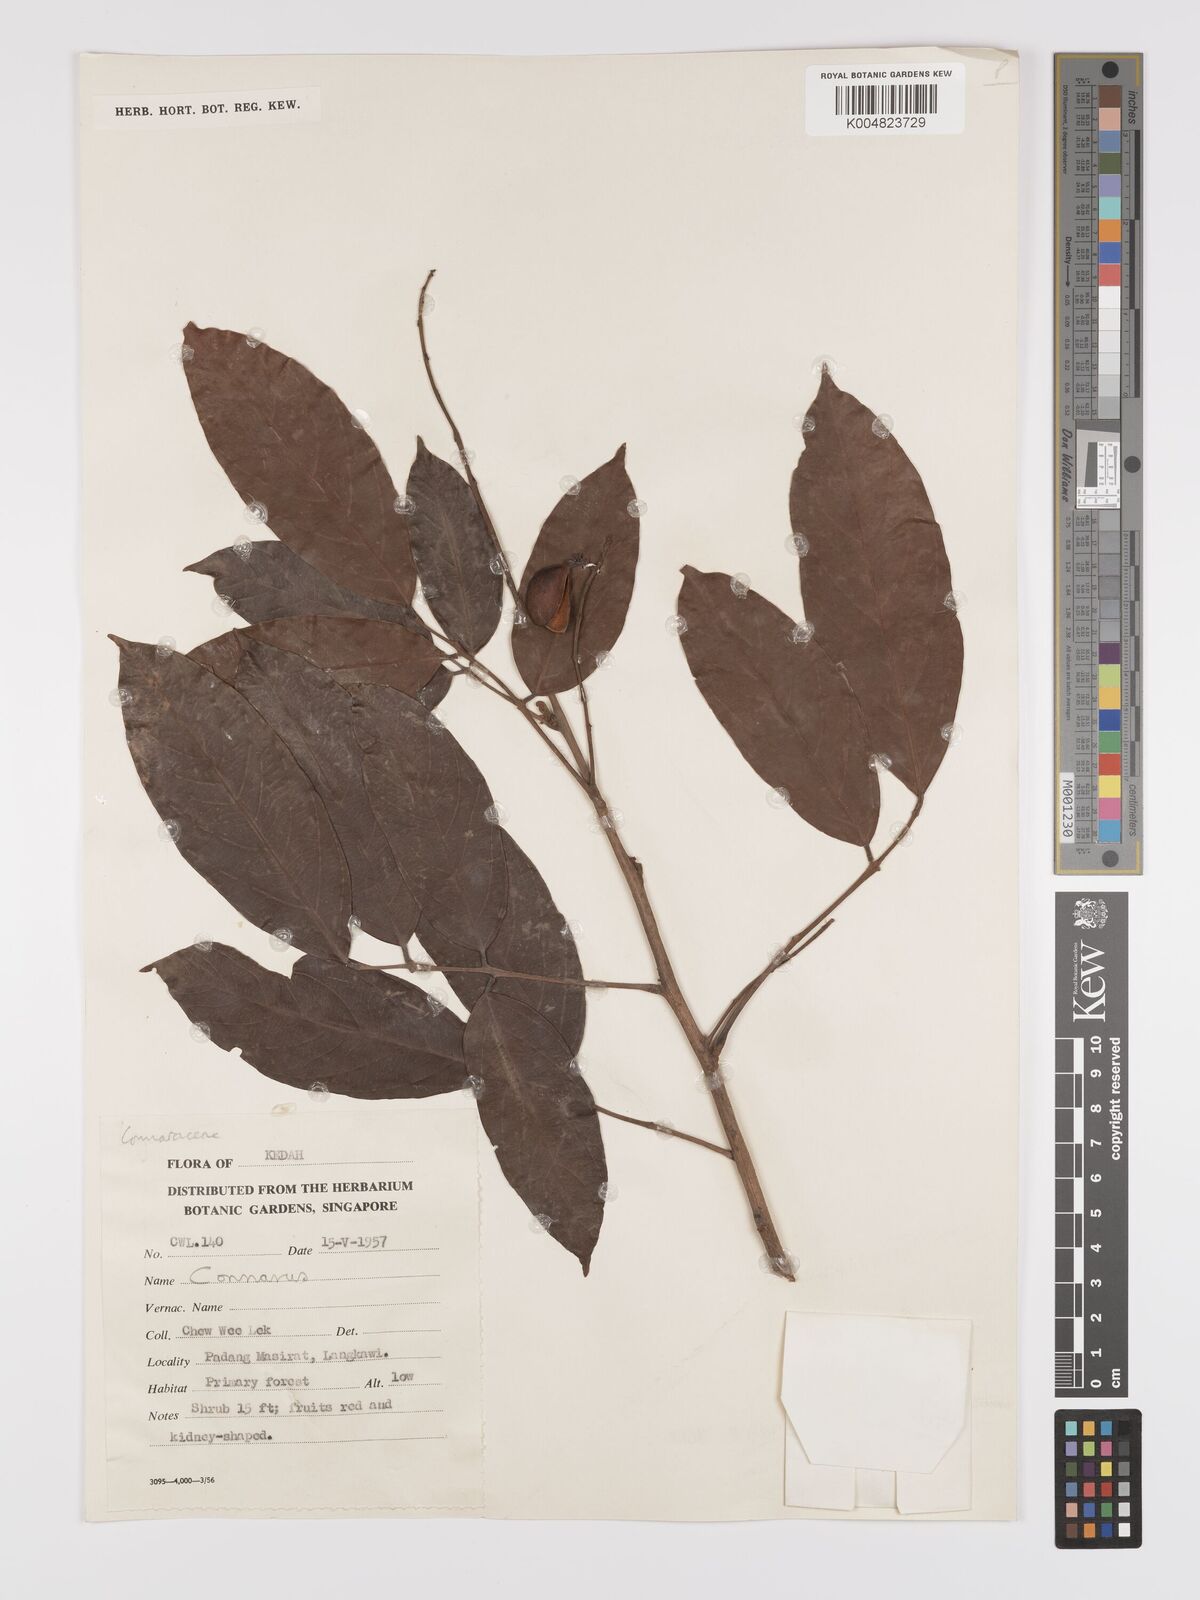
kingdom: Plantae
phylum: Tracheophyta
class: Magnoliopsida
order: Oxalidales
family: Connaraceae
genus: Connarus
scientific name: Connarus
